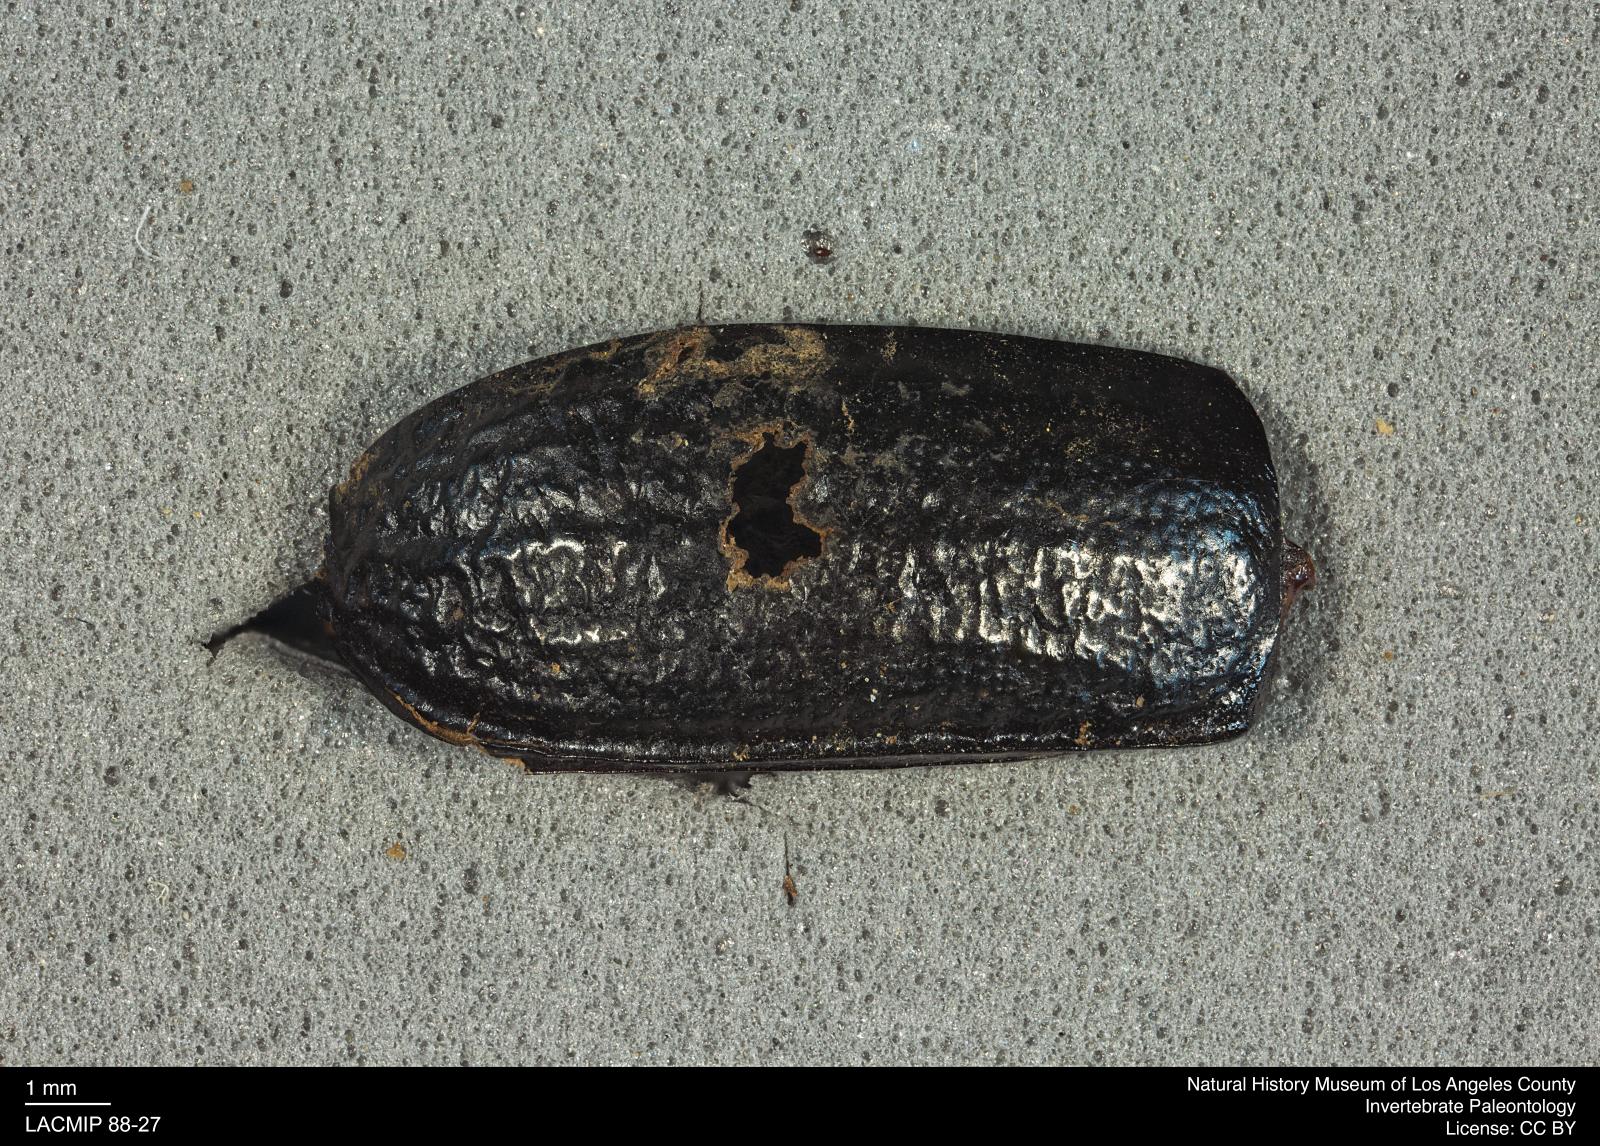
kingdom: Animalia
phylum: Arthropoda
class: Insecta
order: Coleoptera
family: Tenebrionidae
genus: Coniontis
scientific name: Coniontis abdominalis
